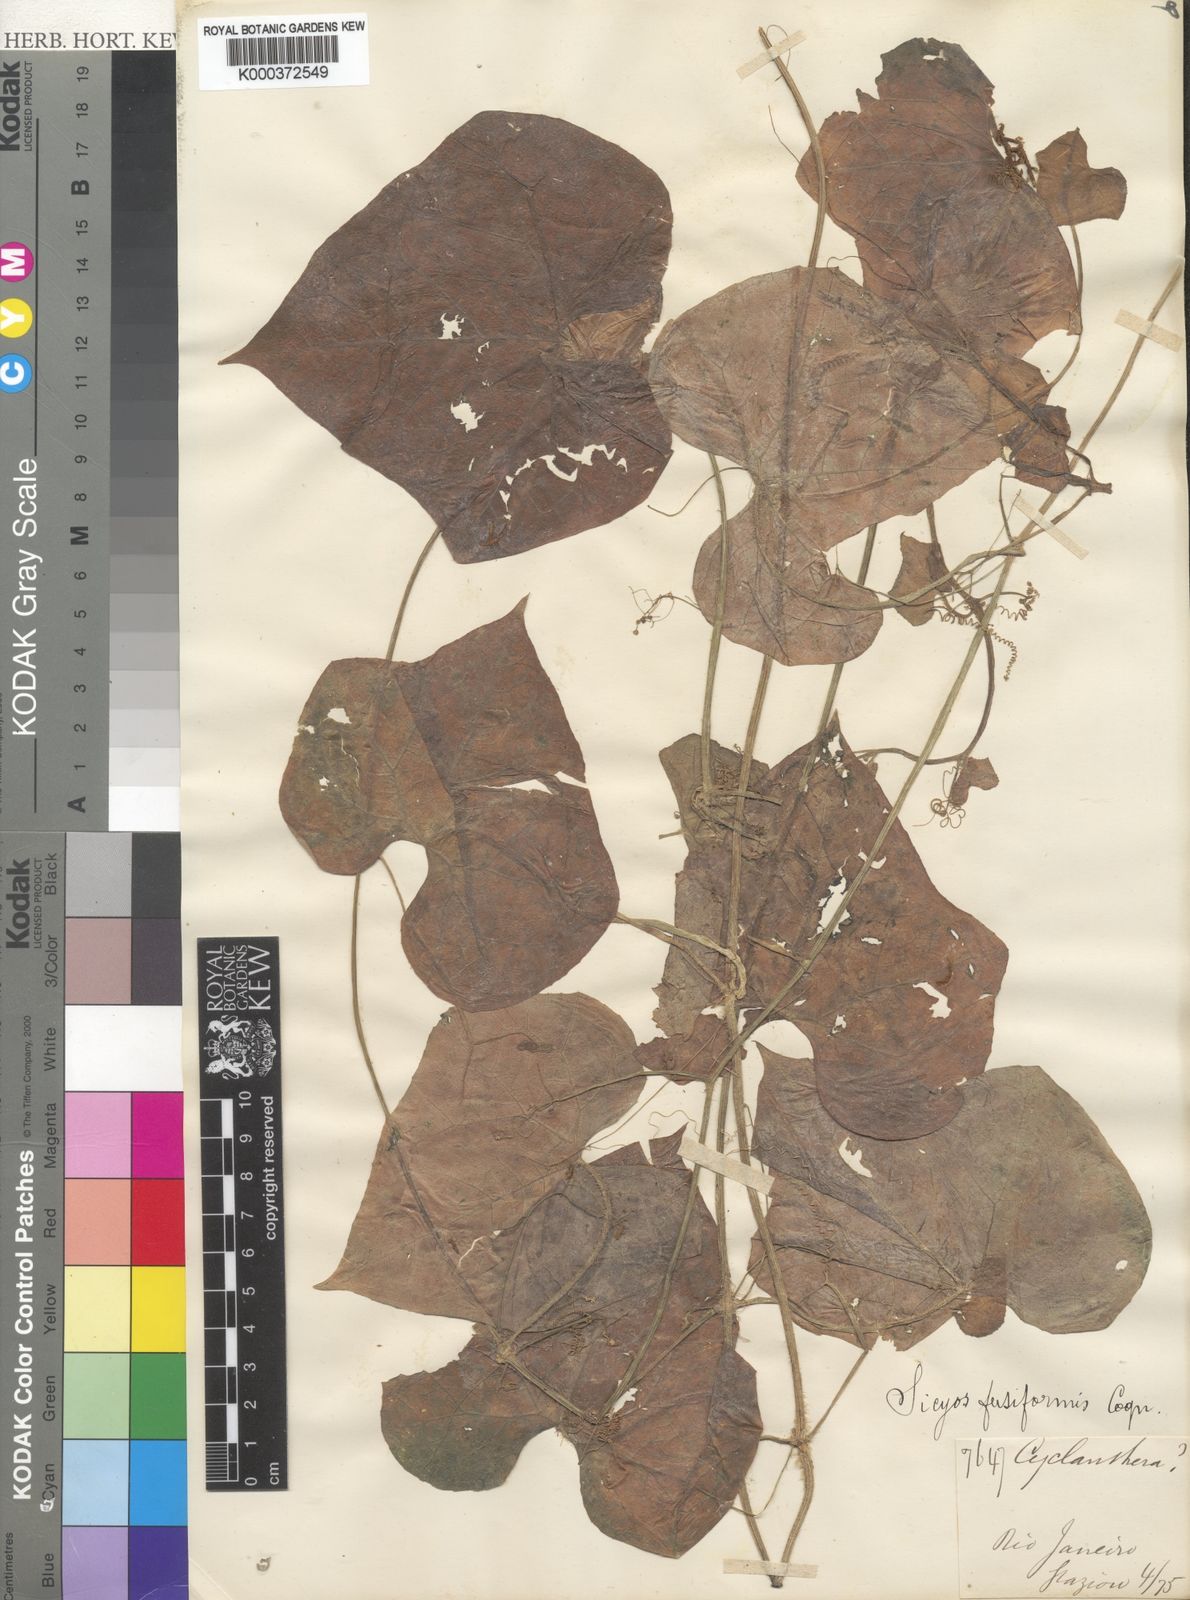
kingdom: Plantae
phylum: Tracheophyta
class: Magnoliopsida
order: Cucurbitales
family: Cucurbitaceae
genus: Sicyos
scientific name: Sicyos fusiformis
